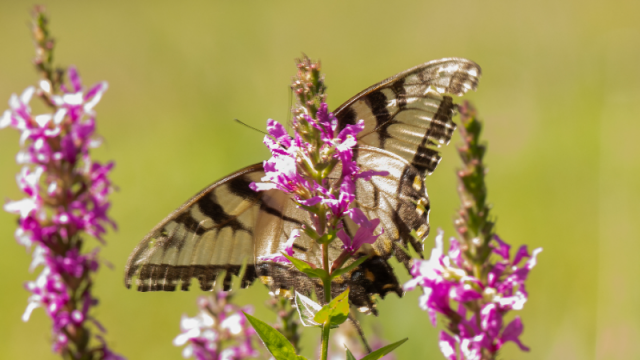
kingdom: Animalia
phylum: Arthropoda
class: Insecta
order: Lepidoptera
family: Papilionidae
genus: Pterourus
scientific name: Pterourus glaucus
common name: Eastern Tiger Swallowtail
